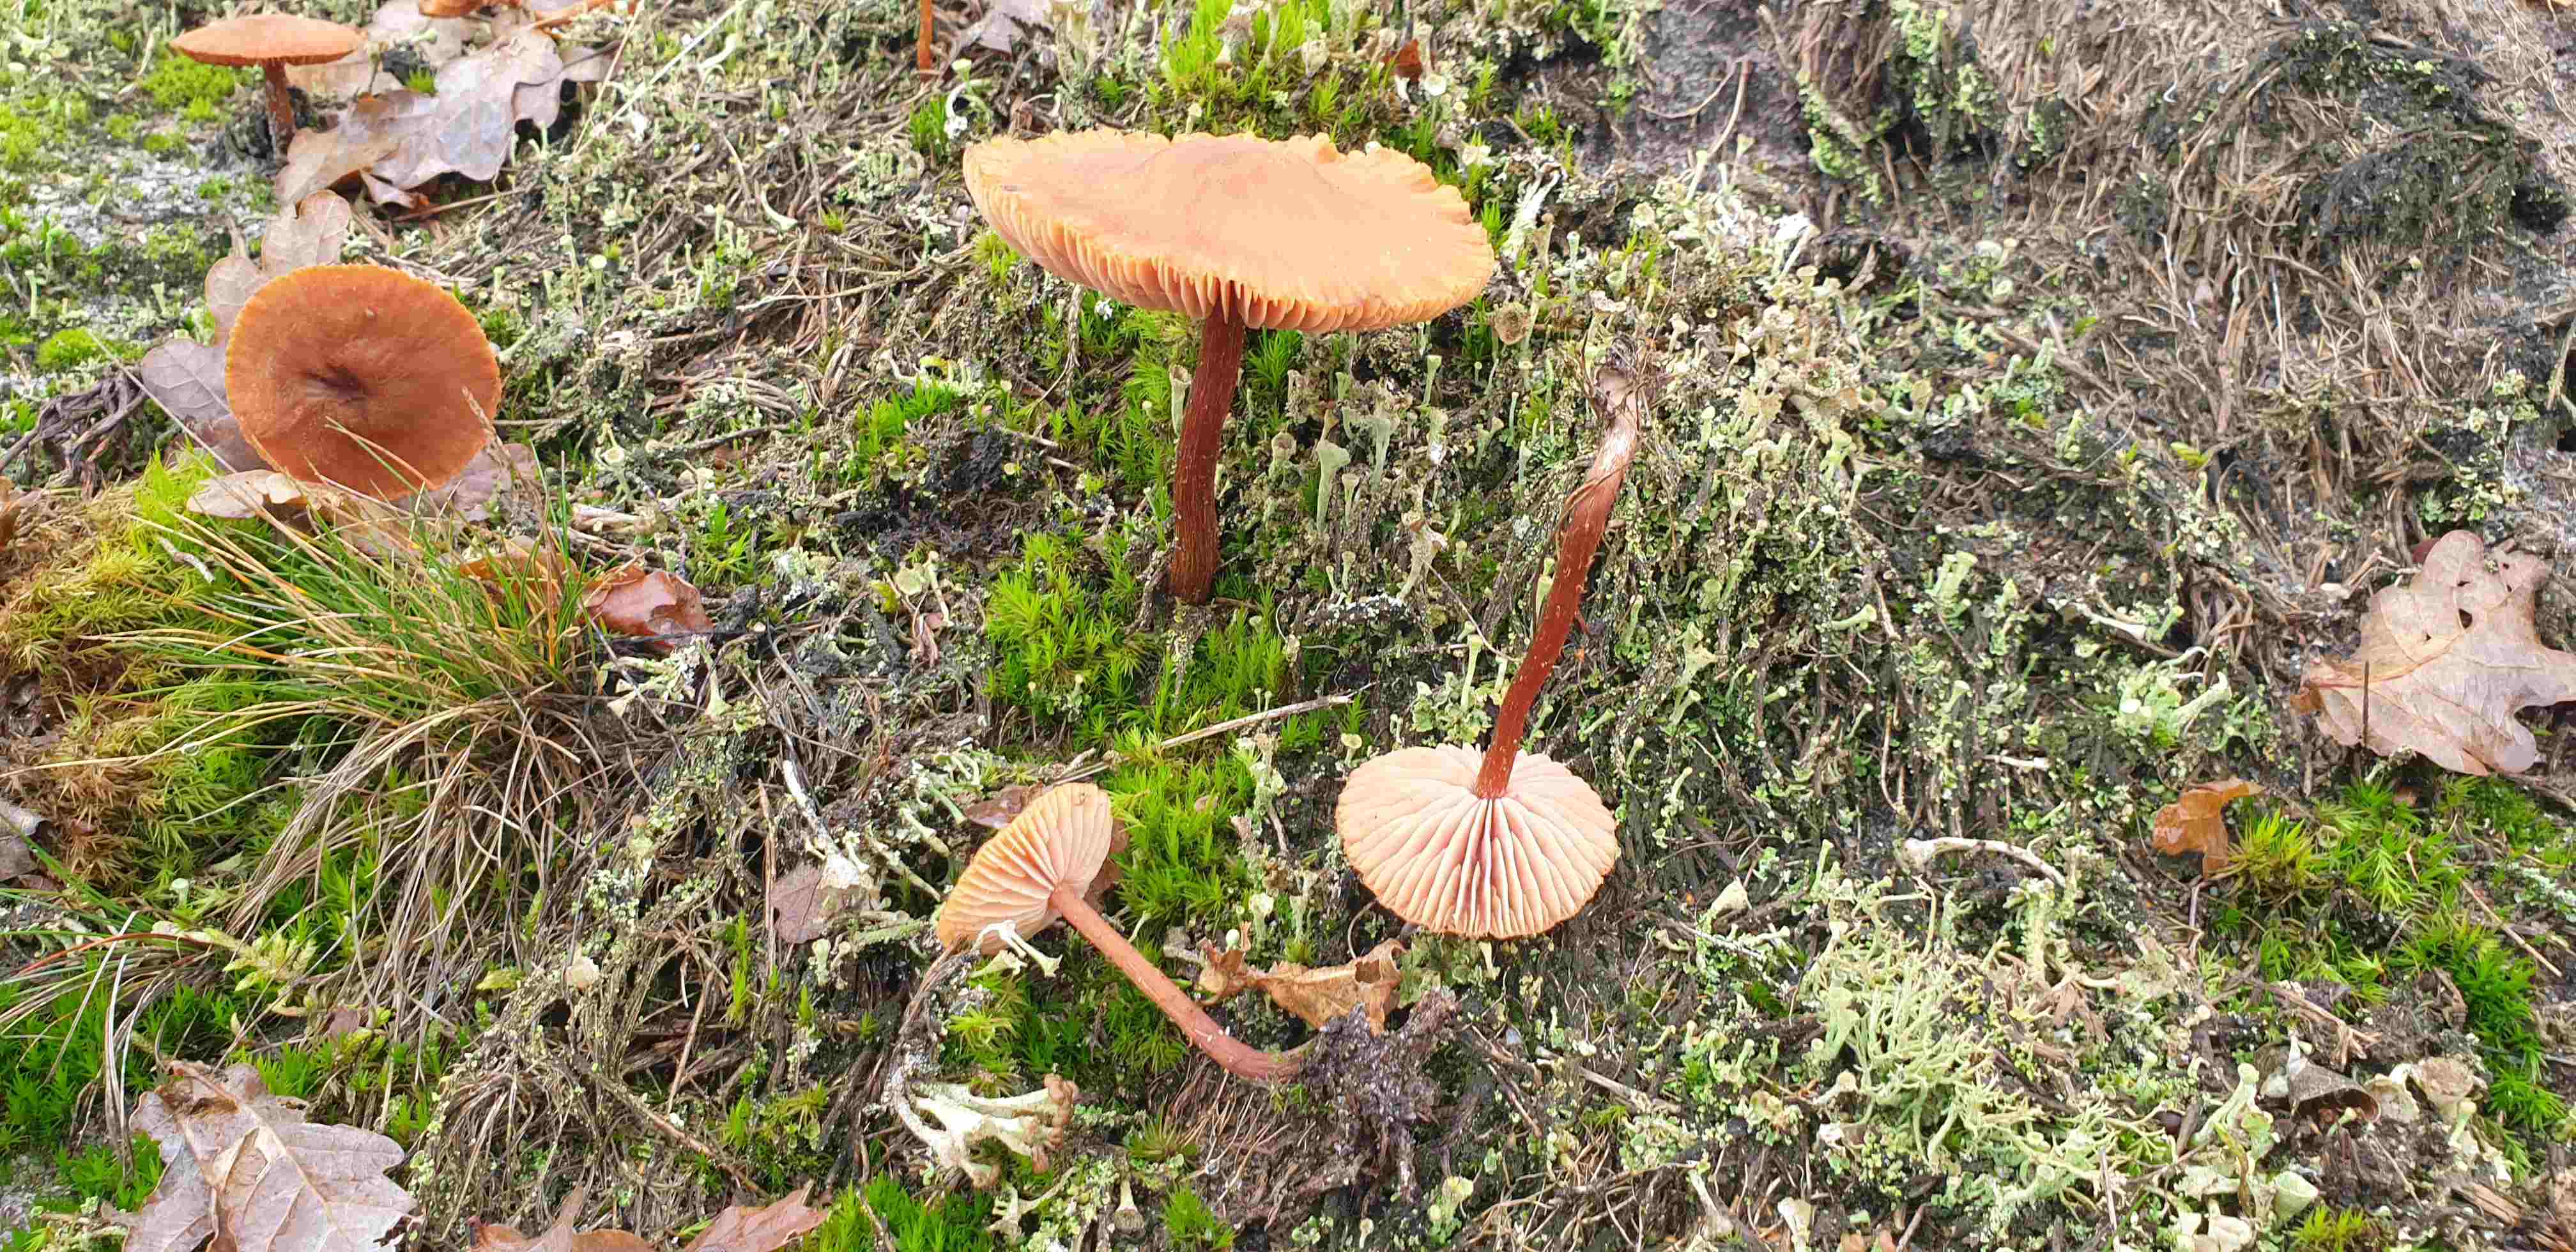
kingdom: Fungi
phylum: Basidiomycota
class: Agaricomycetes
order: Agaricales
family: Hydnangiaceae
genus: Laccaria
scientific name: Laccaria proxima
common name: stor ametysthat
